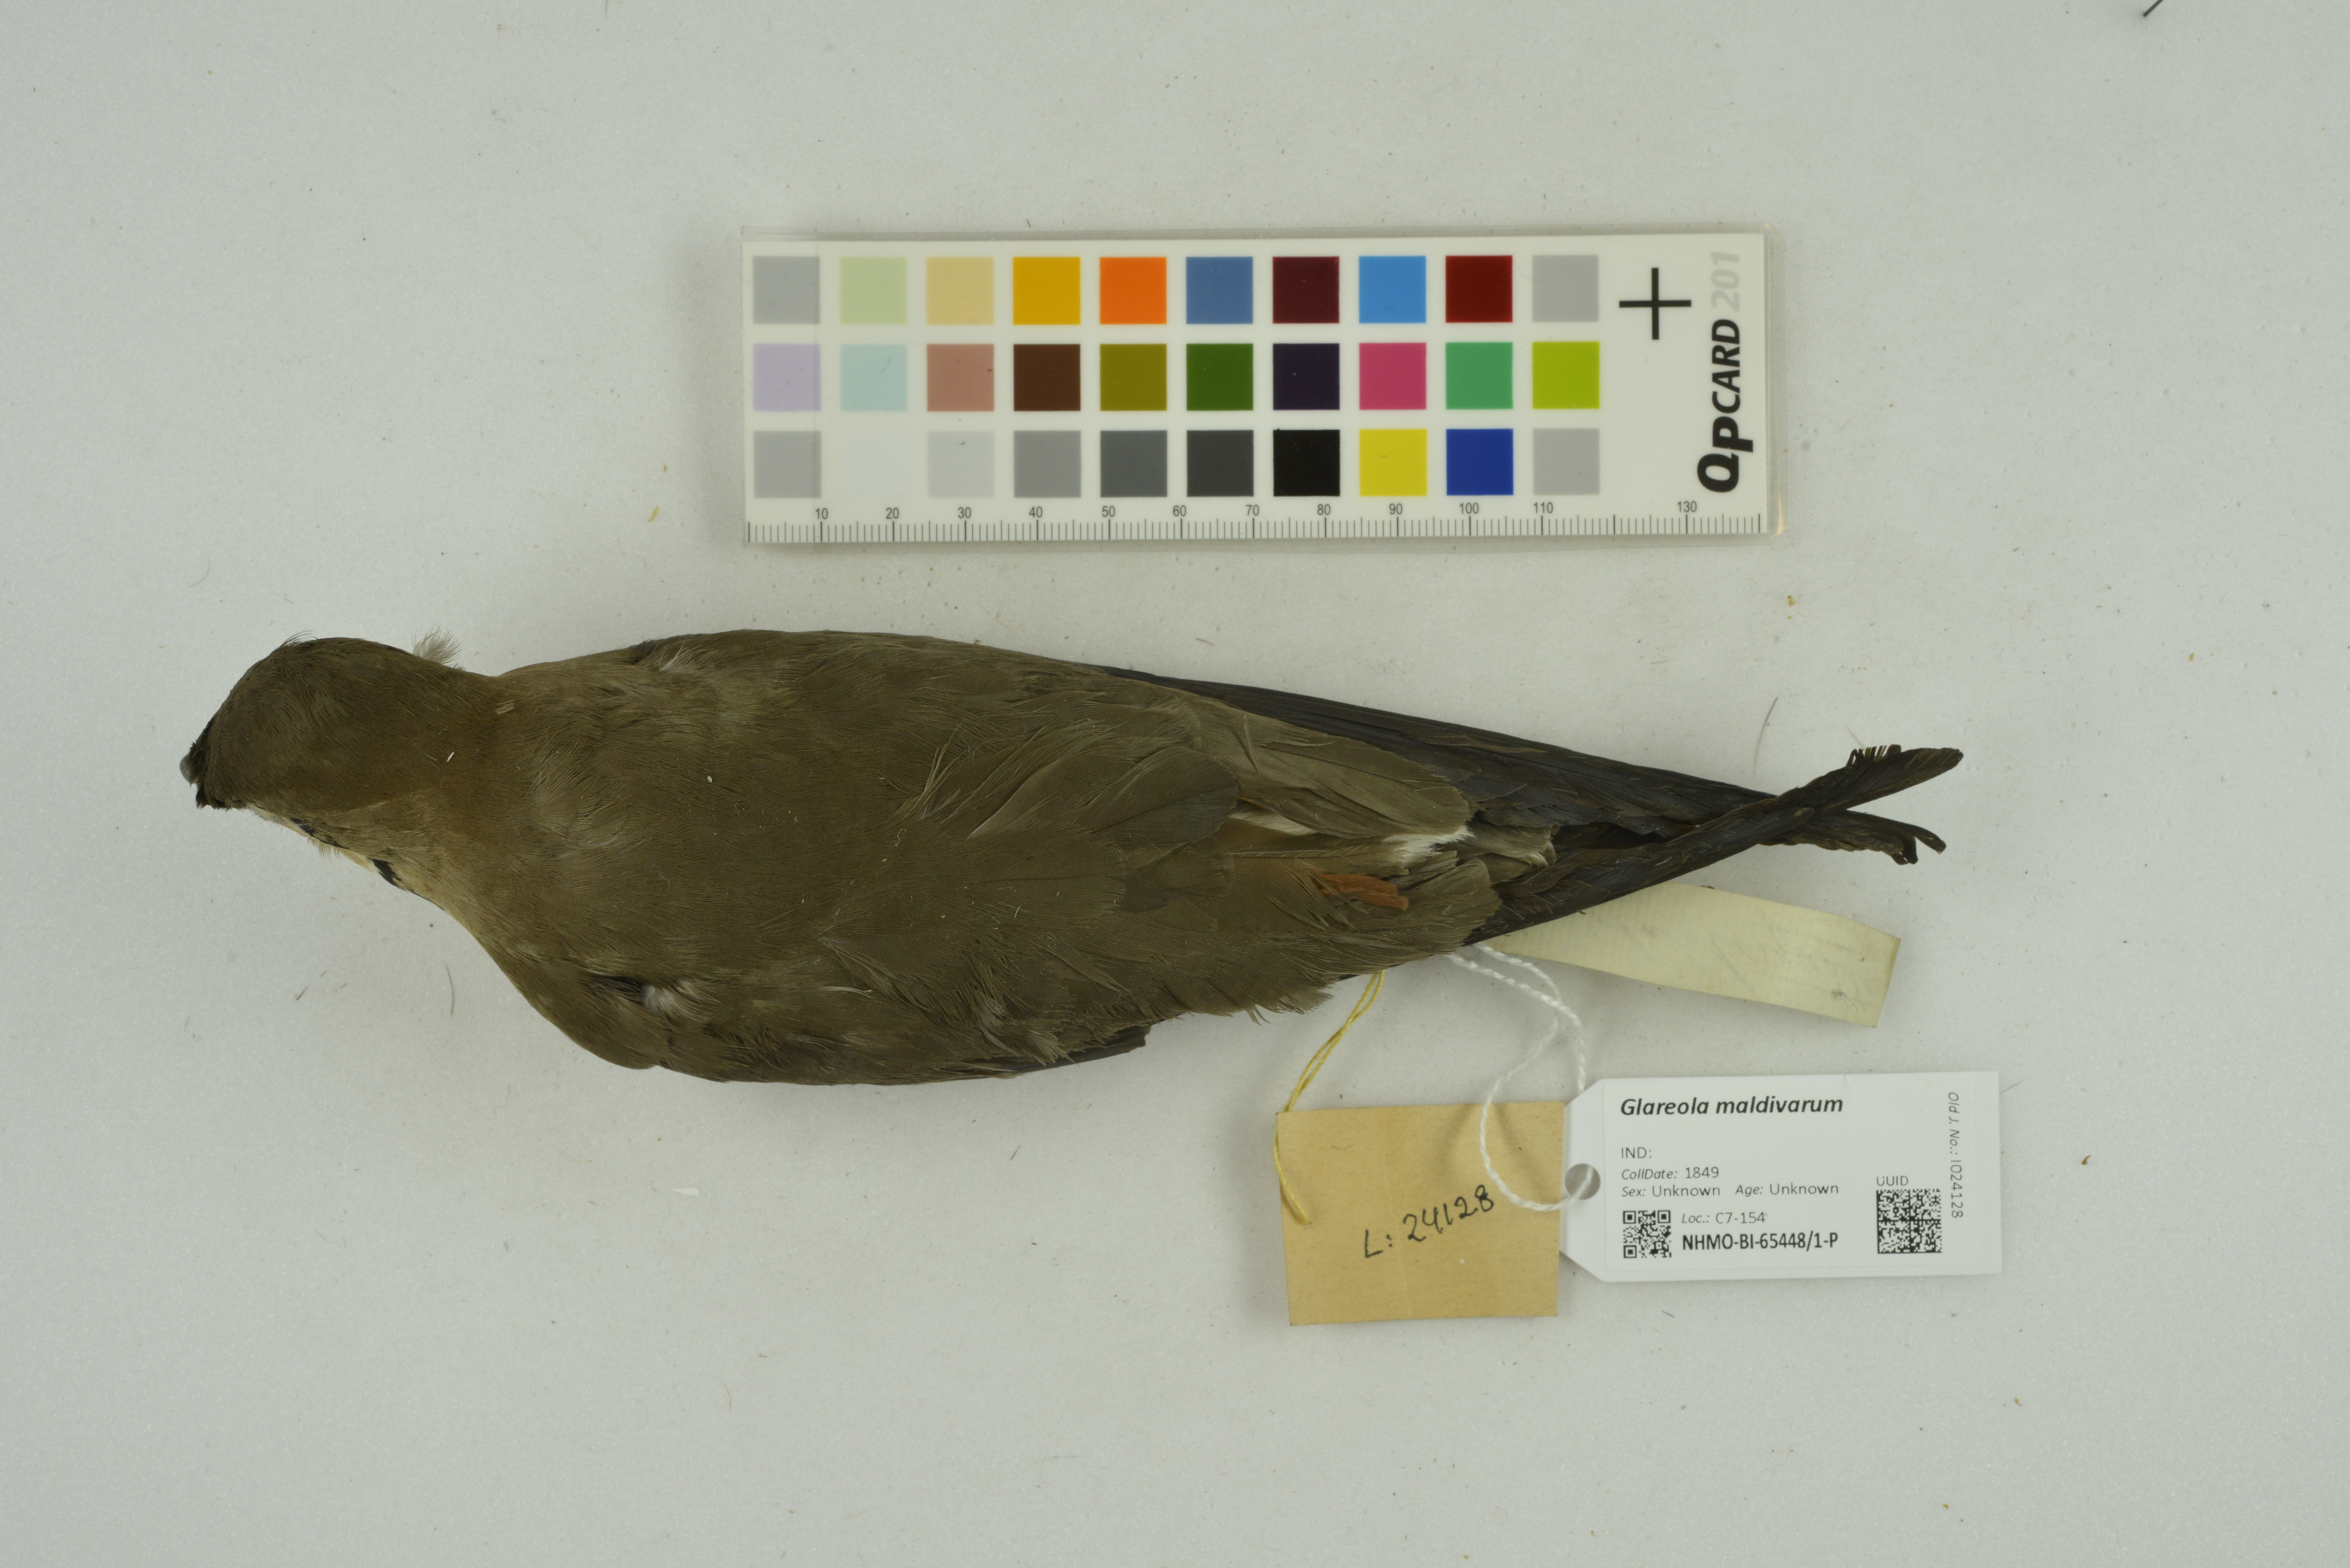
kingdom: Animalia
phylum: Chordata
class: Aves
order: Charadriiformes
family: Glareolidae
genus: Glareola
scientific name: Glareola maldivarum
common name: Oriental pratincole
